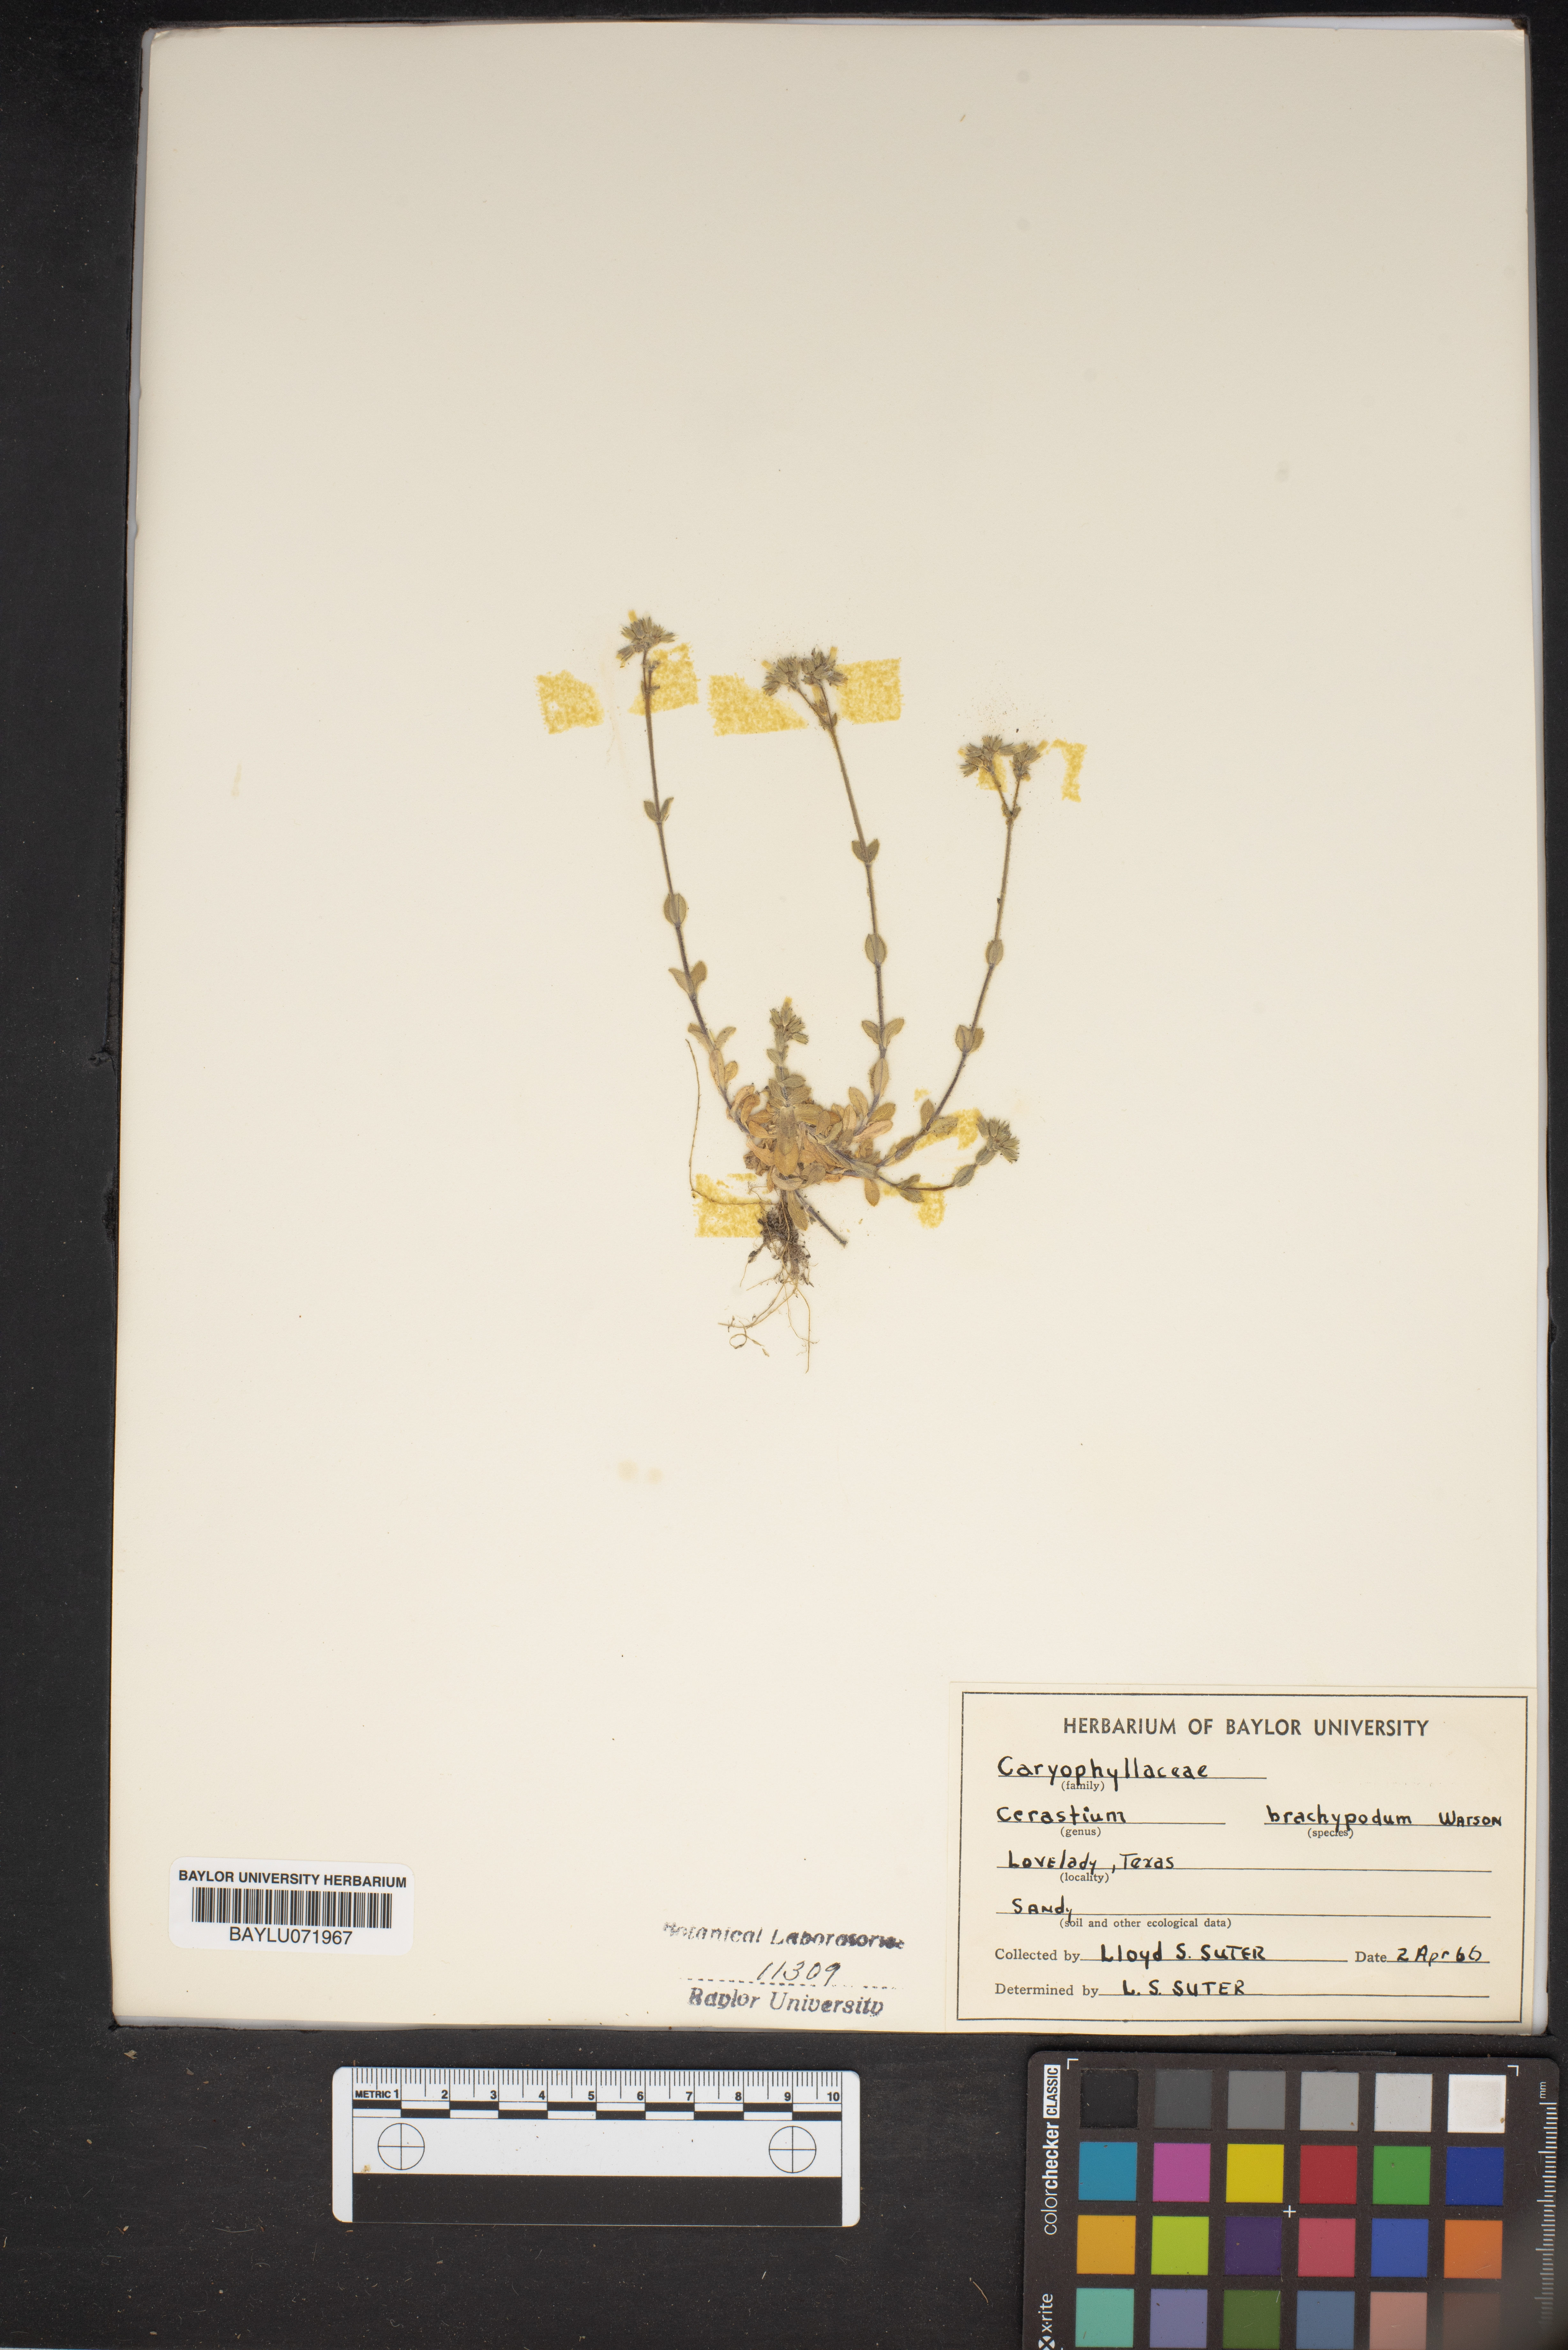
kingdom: Plantae
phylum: Tracheophyta
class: Magnoliopsida
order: Caryophyllales
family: Caryophyllaceae
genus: Cerastium
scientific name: Cerastium brachypodum
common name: Short-pedicelled nodding chickweed
